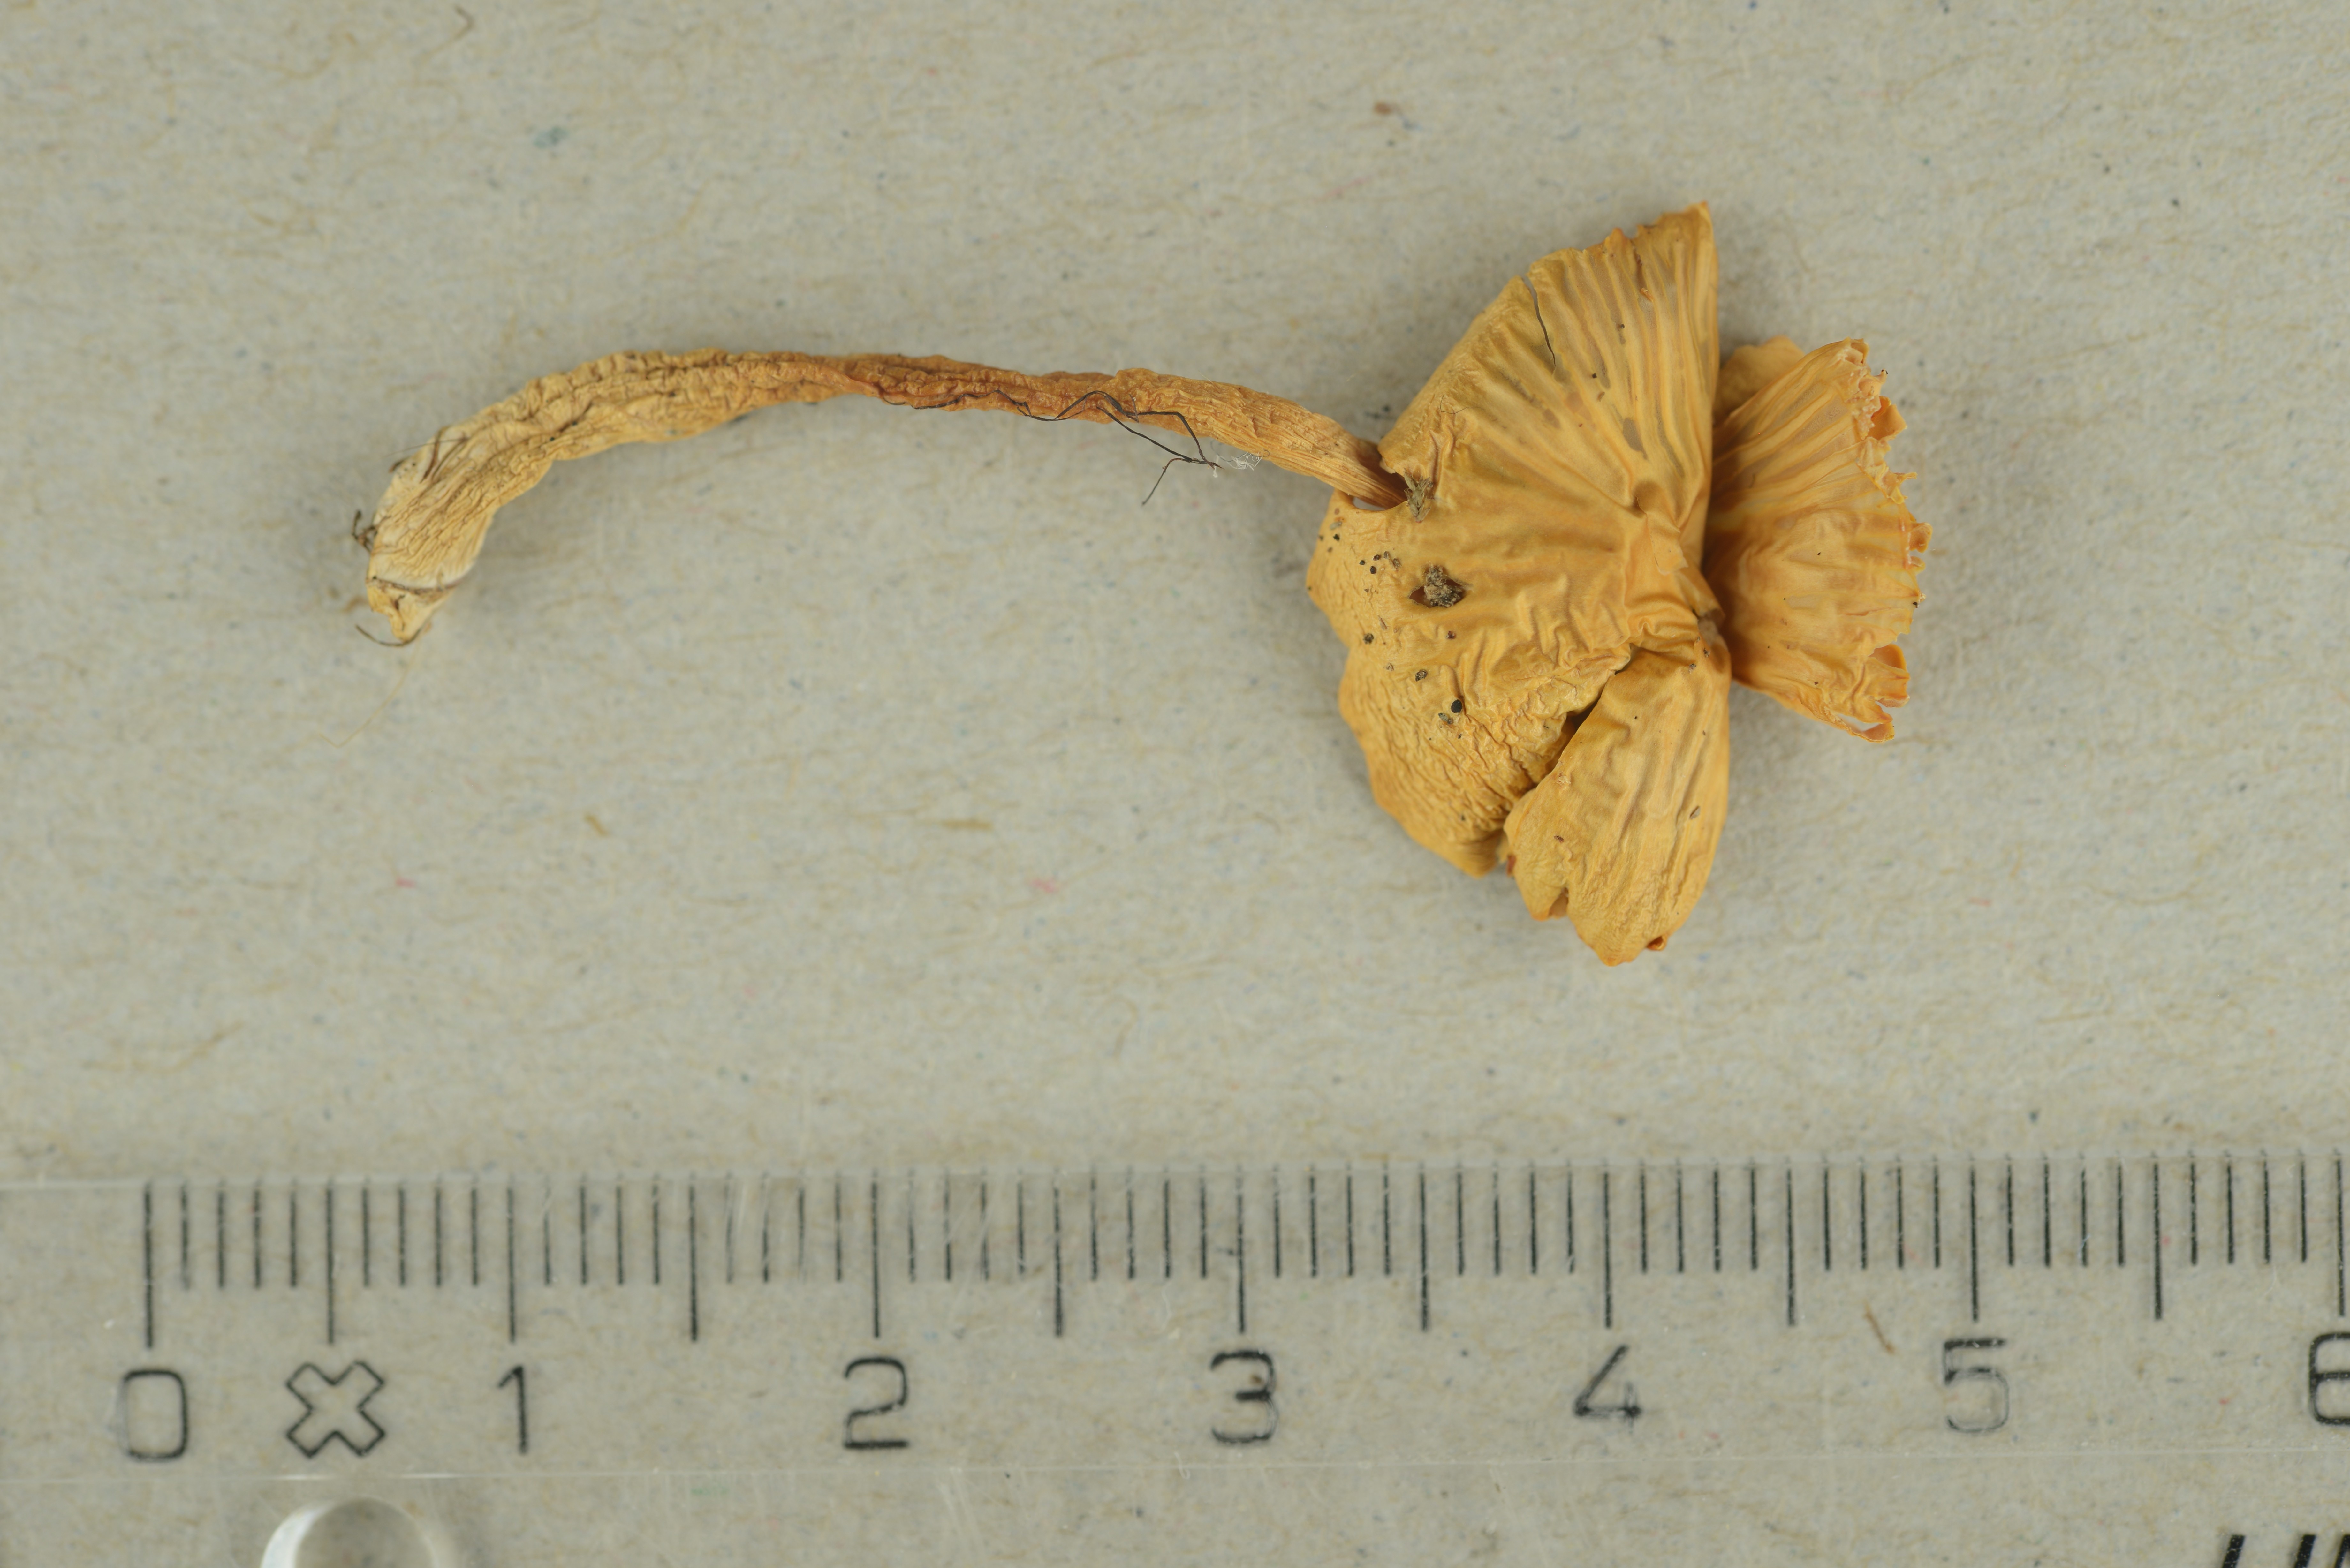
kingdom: Fungi
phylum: Basidiomycota
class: Agaricomycetes
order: Agaricales
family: Hygrophoraceae
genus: Gliophorus
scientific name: Gliophorus psittacinus
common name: Parrot wax-cap
